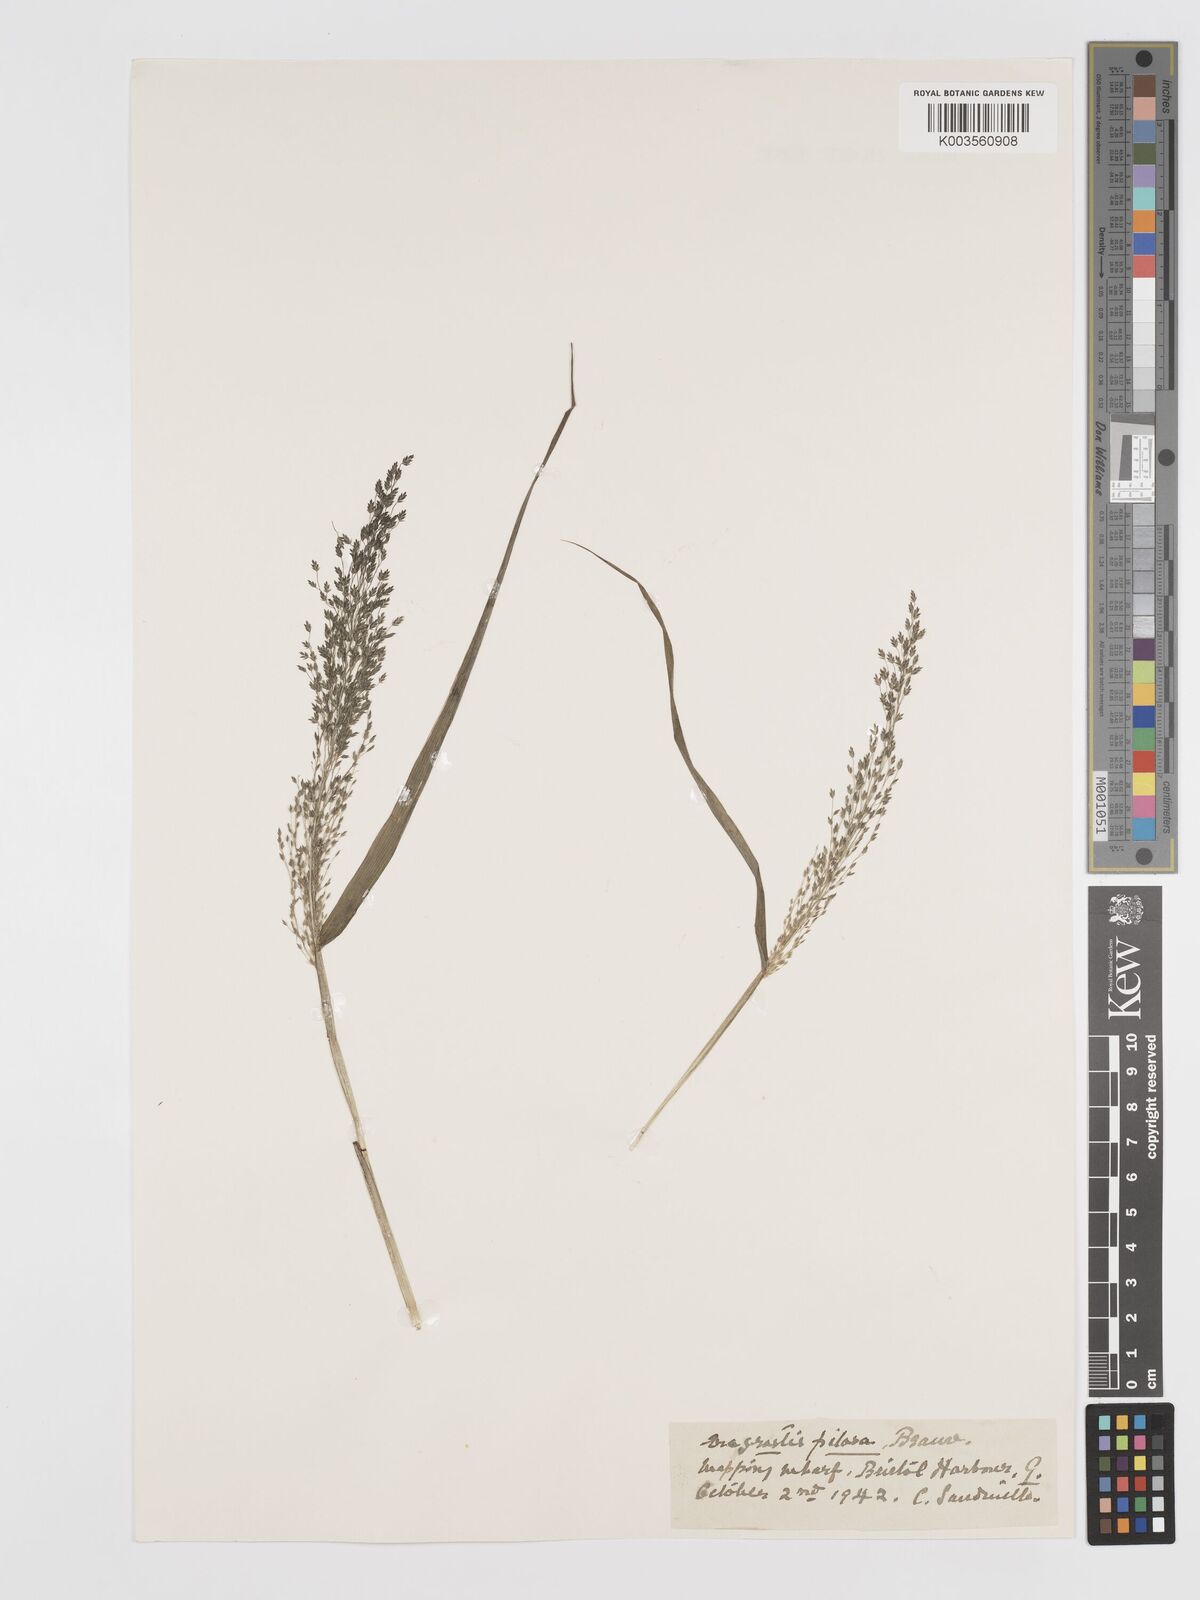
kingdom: Plantae
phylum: Tracheophyta
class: Liliopsida
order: Poales
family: Poaceae
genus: Eragrostis
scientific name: Eragrostis mexicana
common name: Mexican love grass
